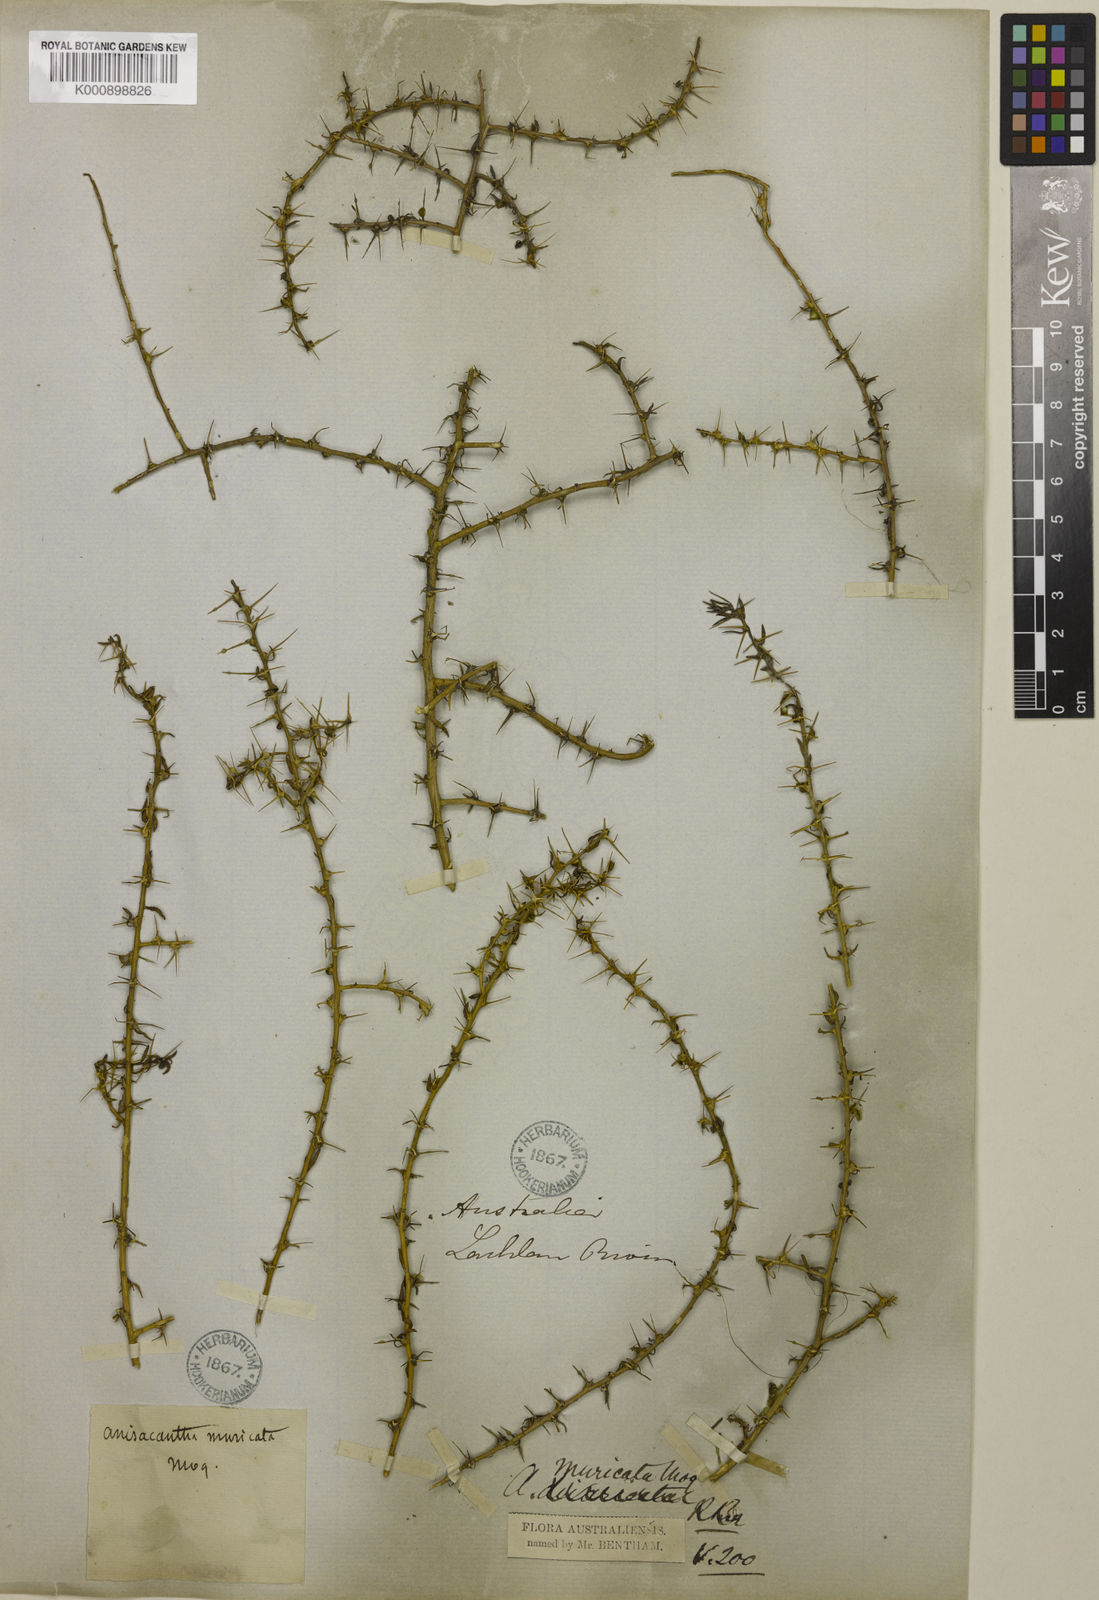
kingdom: Plantae
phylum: Tracheophyta
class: Magnoliopsida
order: Caryophyllales
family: Amaranthaceae
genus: Sclerolaena
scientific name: Sclerolaena muricata
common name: Roly-poly
